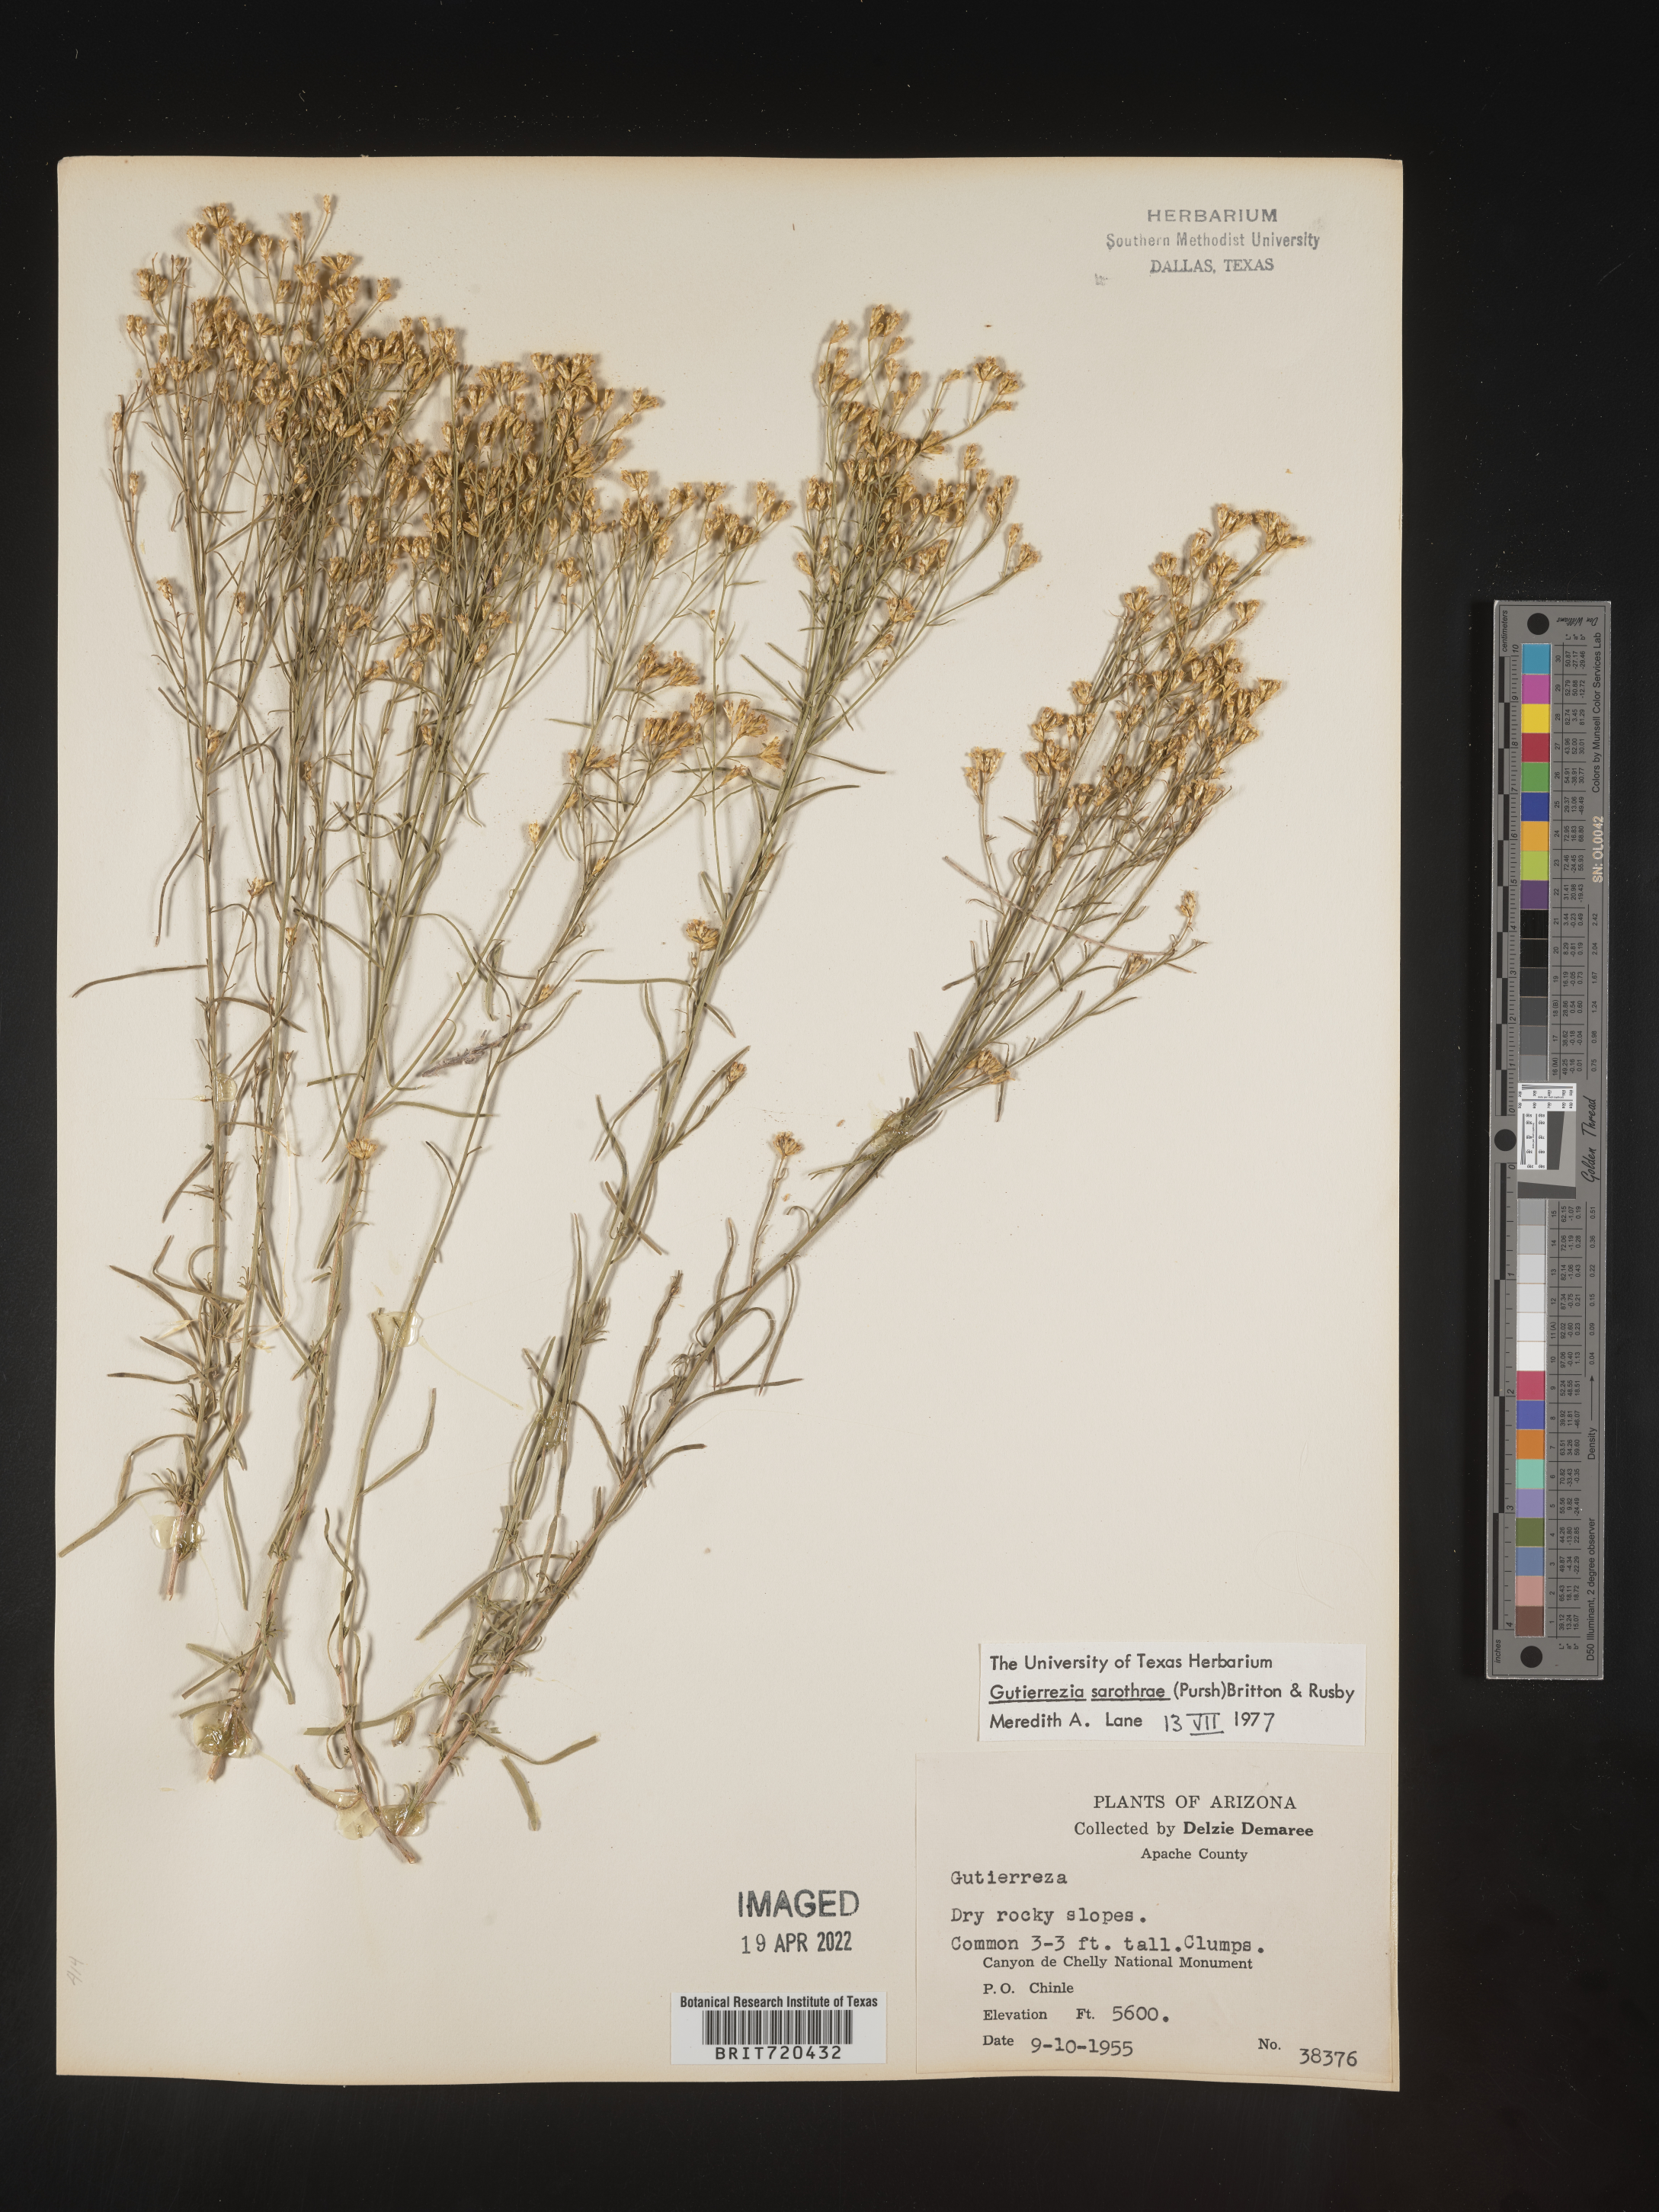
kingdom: Plantae
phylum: Tracheophyta
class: Magnoliopsida
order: Asterales
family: Asteraceae
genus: Gutierrezia
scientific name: Gutierrezia sarothrae
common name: Broom snakeweed
